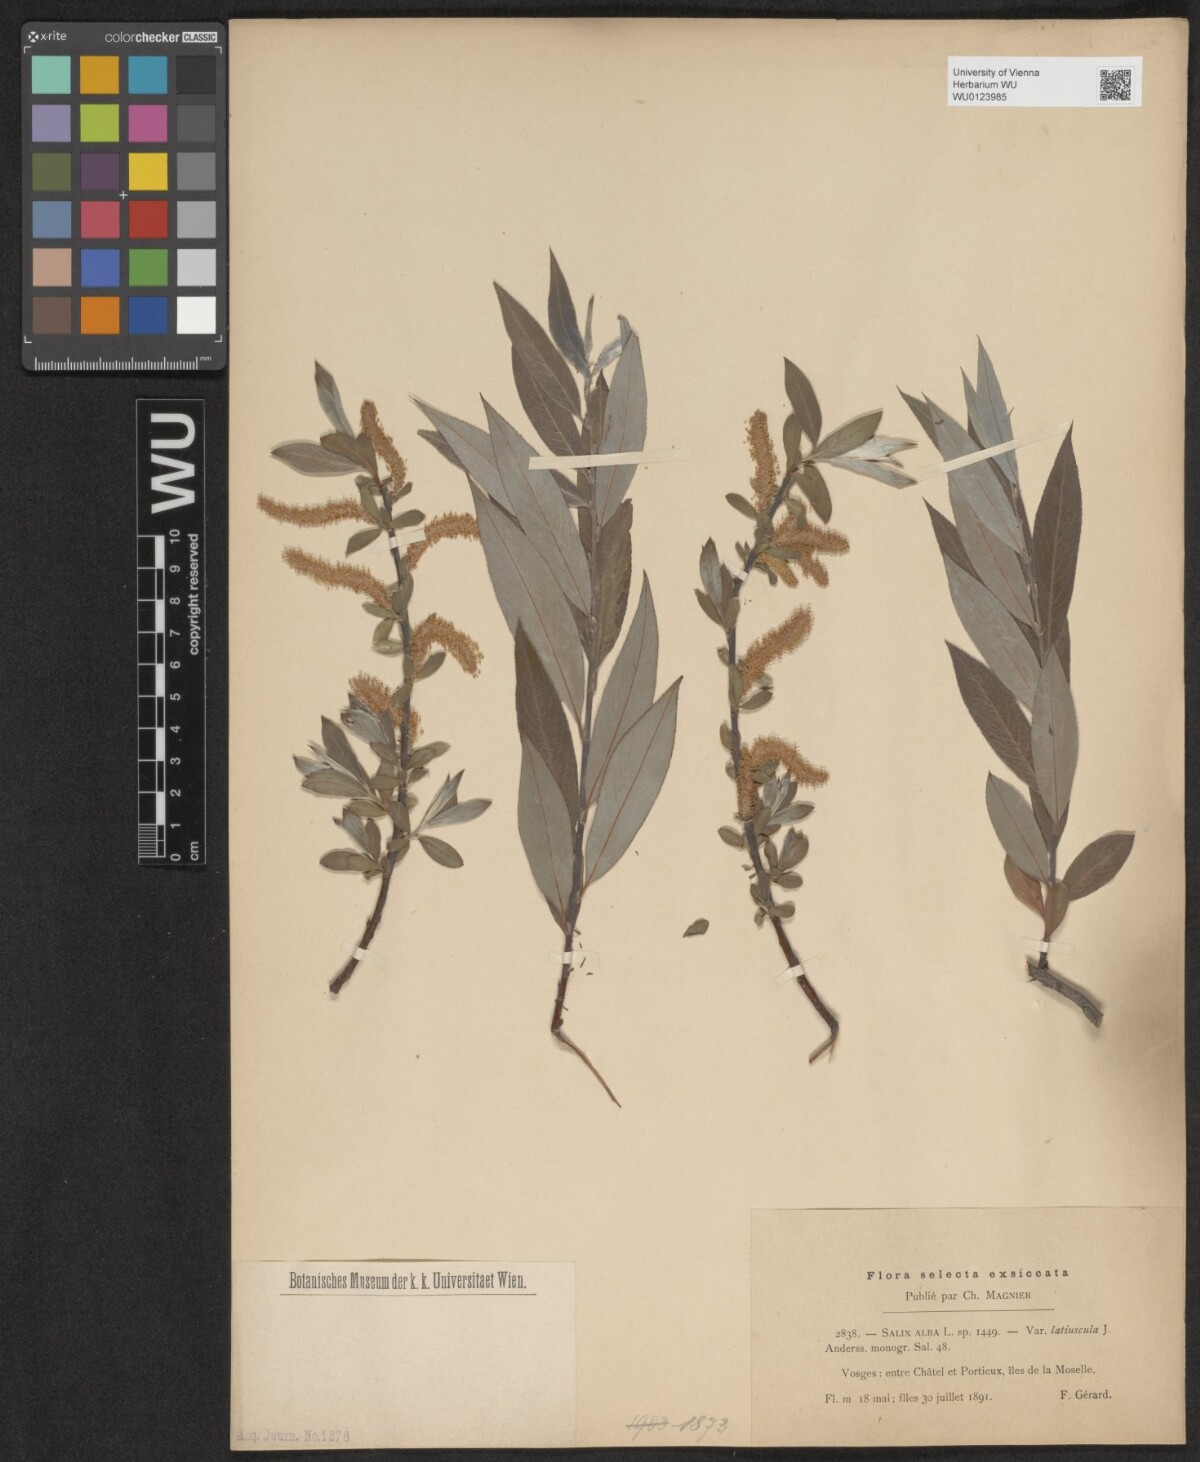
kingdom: Plantae
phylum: Tracheophyta
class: Magnoliopsida
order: Malpighiales
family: Salicaceae
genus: Salix
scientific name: Salix alba
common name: White willow
